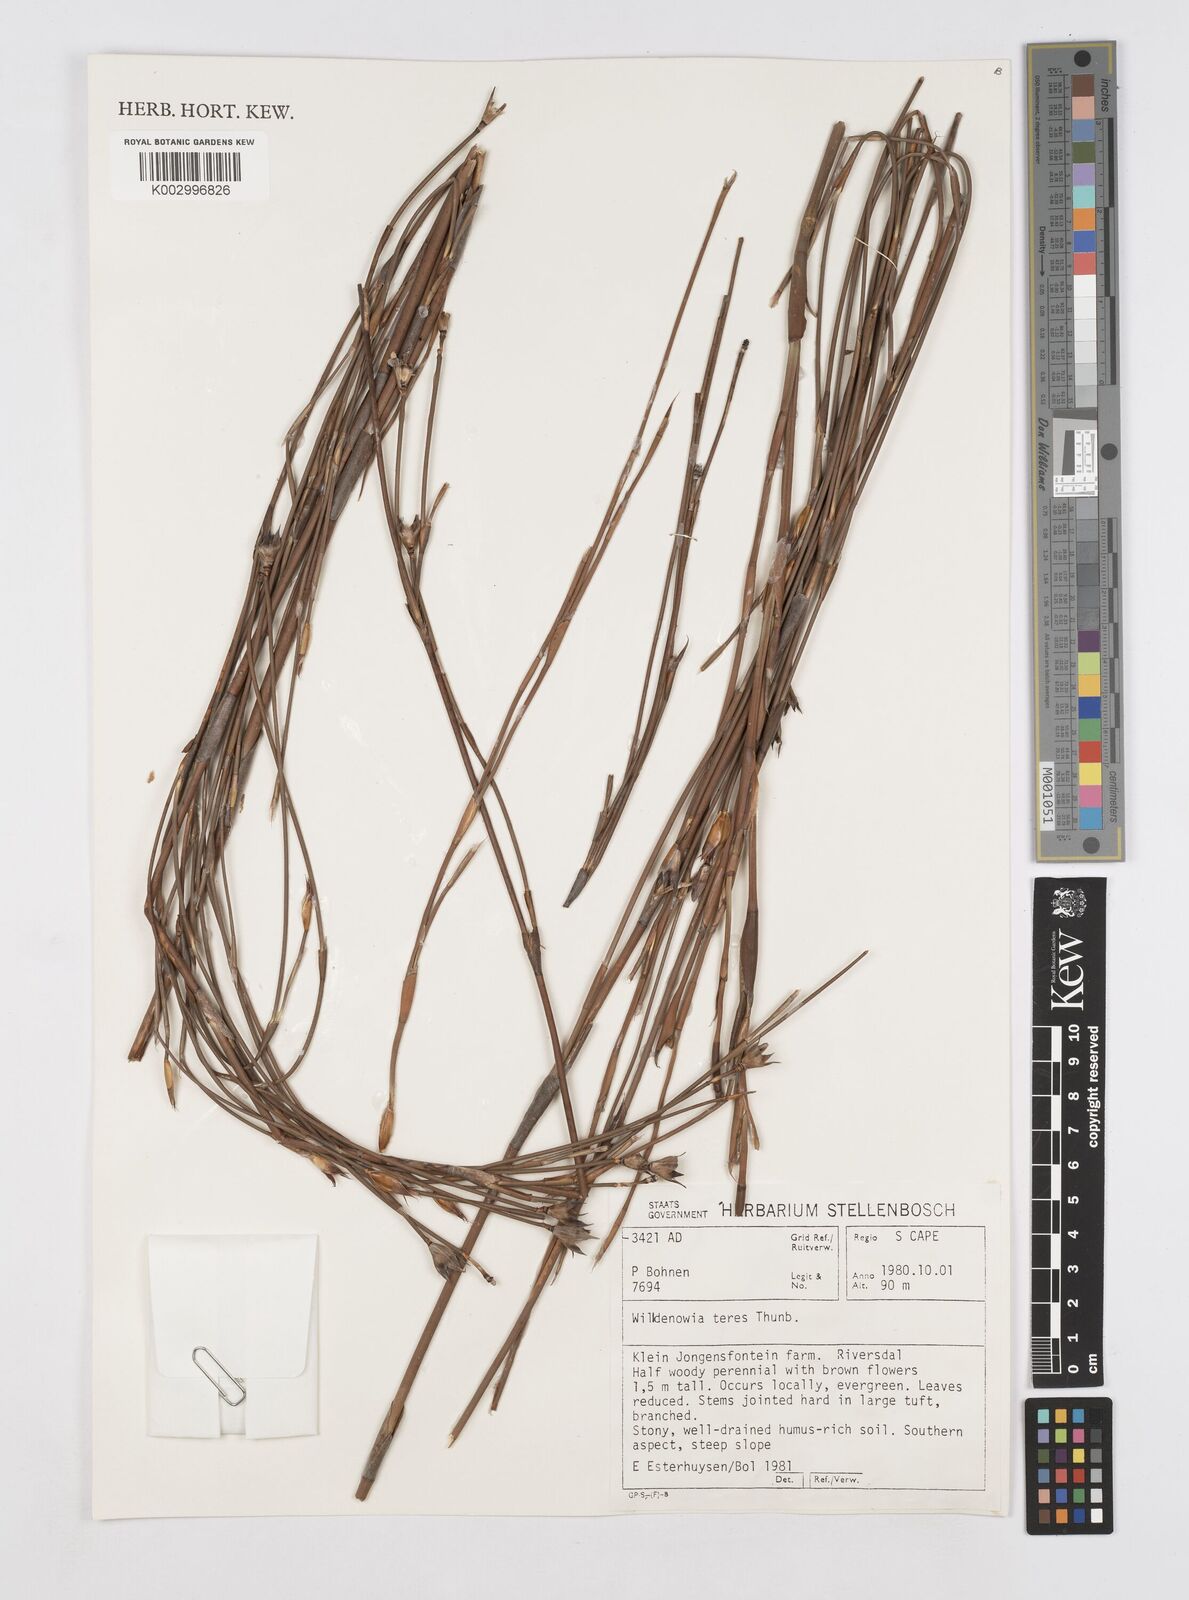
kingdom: Plantae
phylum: Tracheophyta
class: Liliopsida
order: Poales
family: Restionaceae
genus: Willdenowia
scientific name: Willdenowia teres
